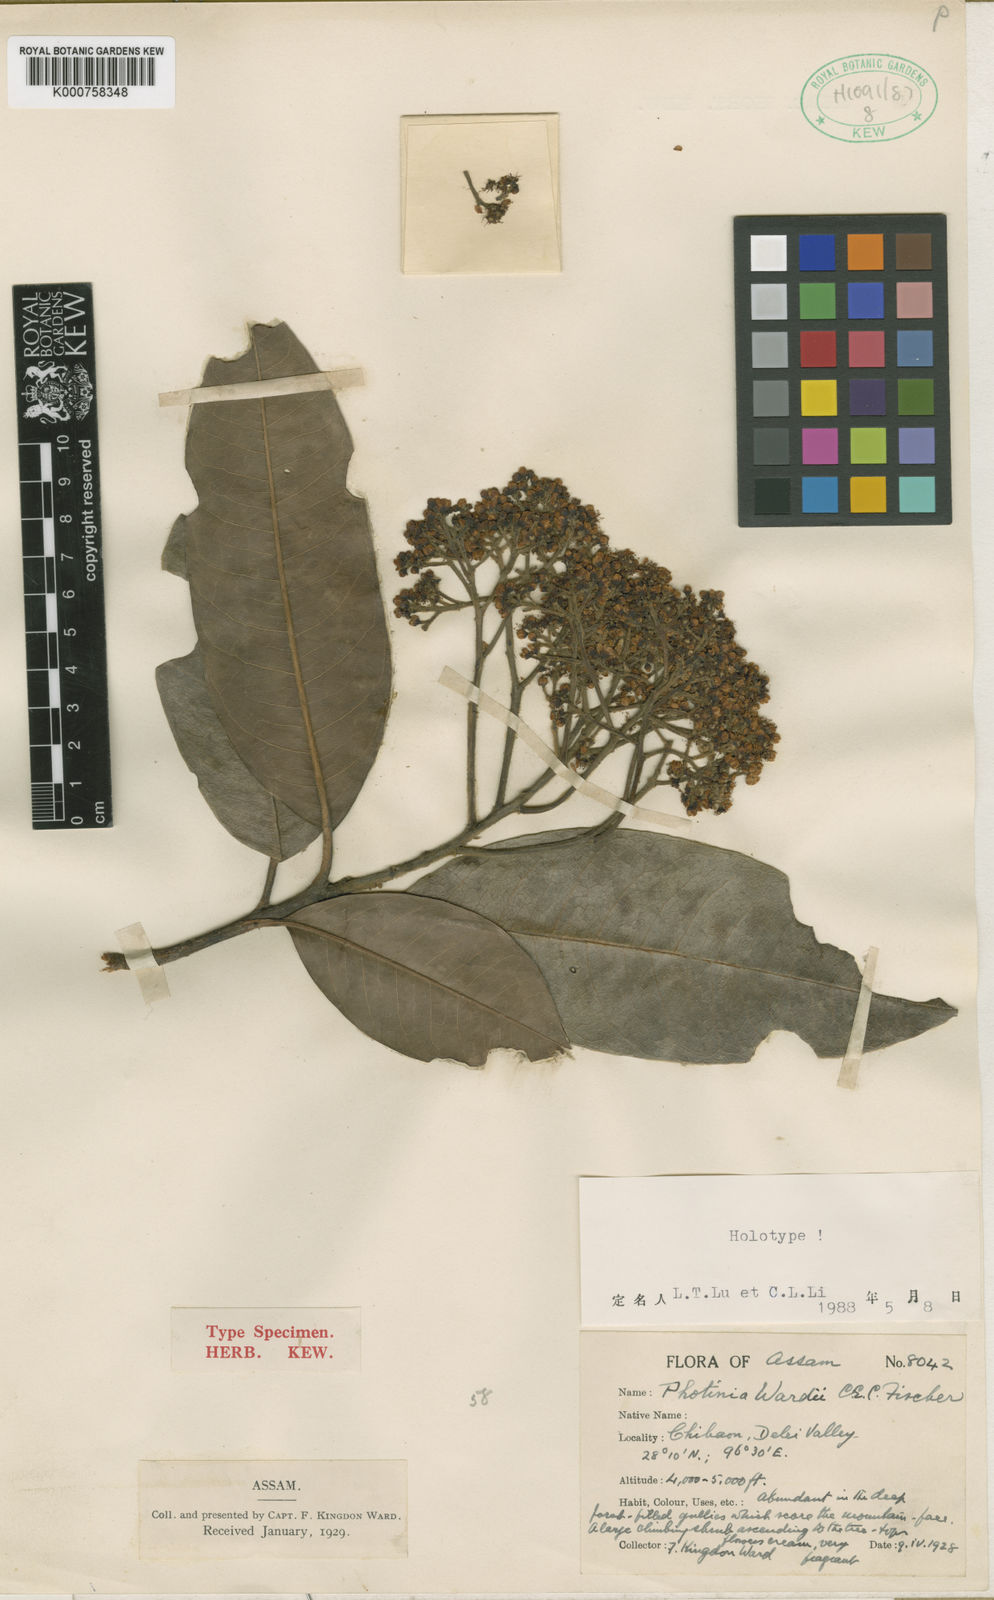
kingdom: Plantae
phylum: Tracheophyta
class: Magnoliopsida
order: Rosales
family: Rosaceae
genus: Photinia
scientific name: Photinia integrifolia
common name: Himalayan chokeberry
